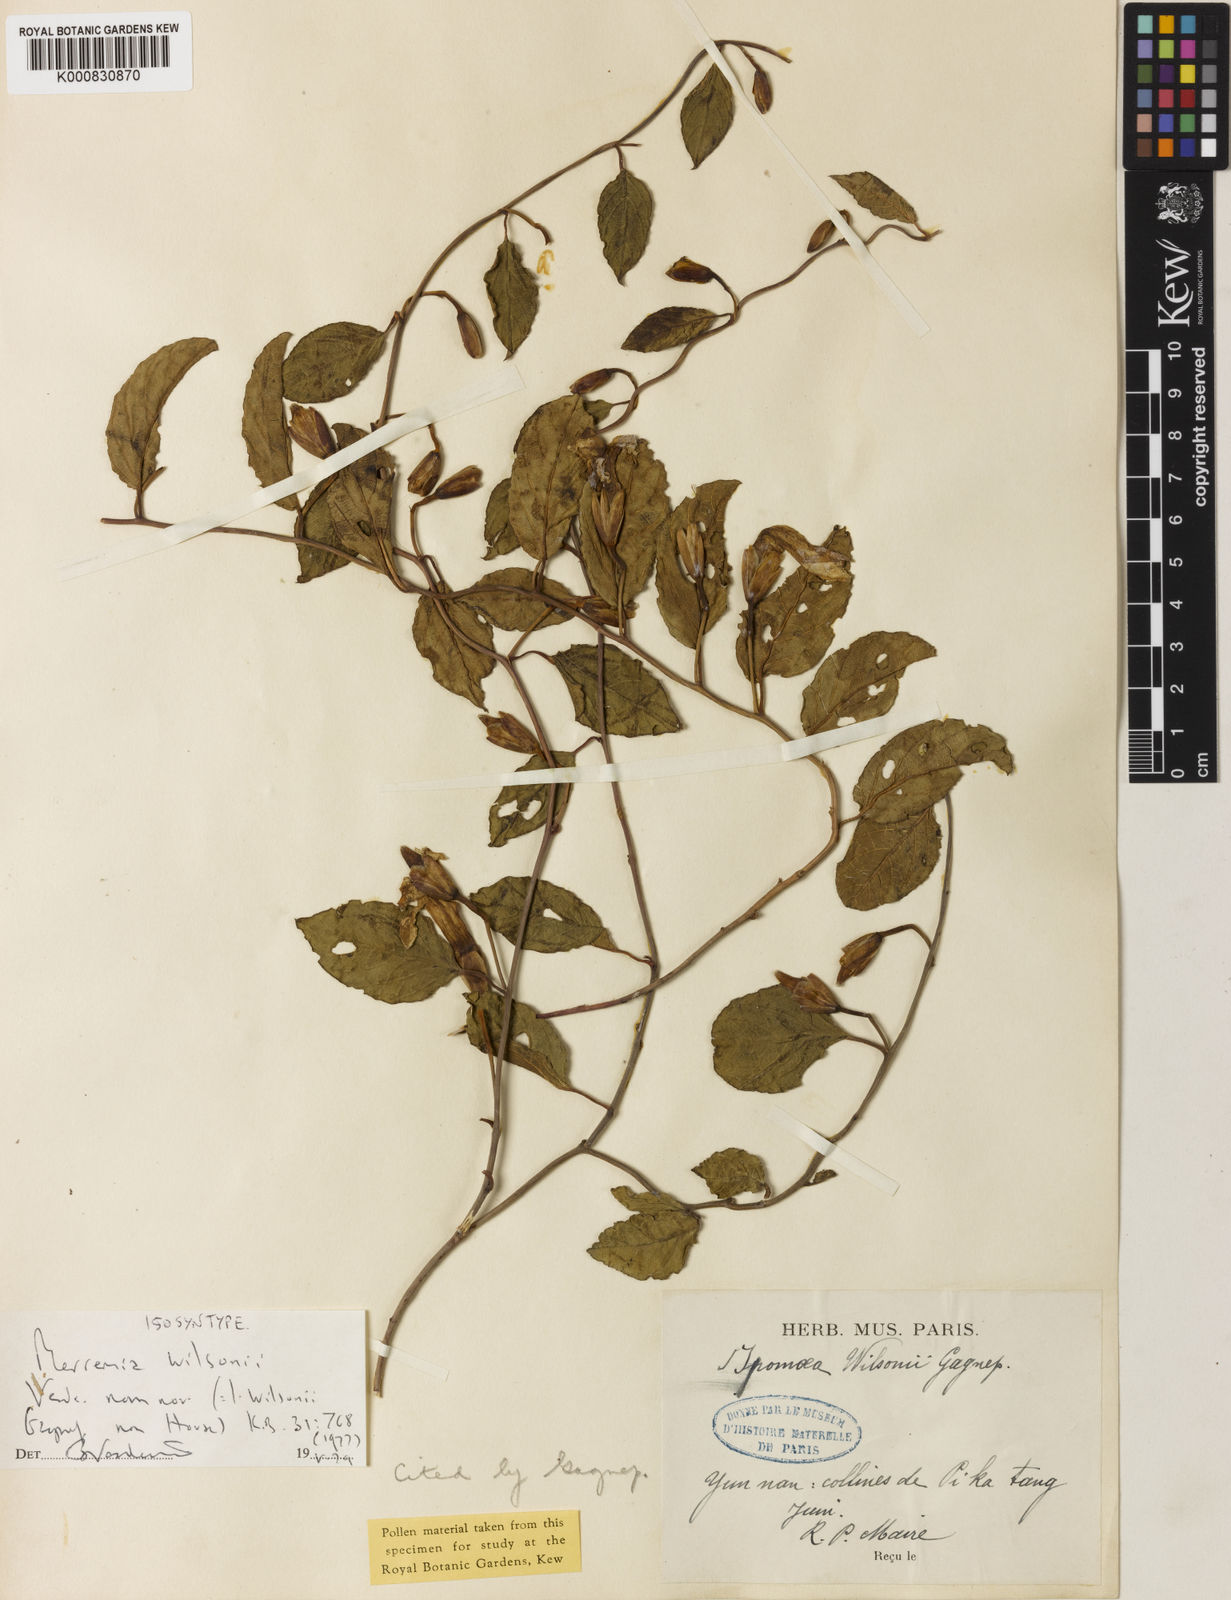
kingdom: Plantae
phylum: Tracheophyta
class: Magnoliopsida
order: Solanales
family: Convolvulaceae
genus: Merremia
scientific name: Merremia martini
